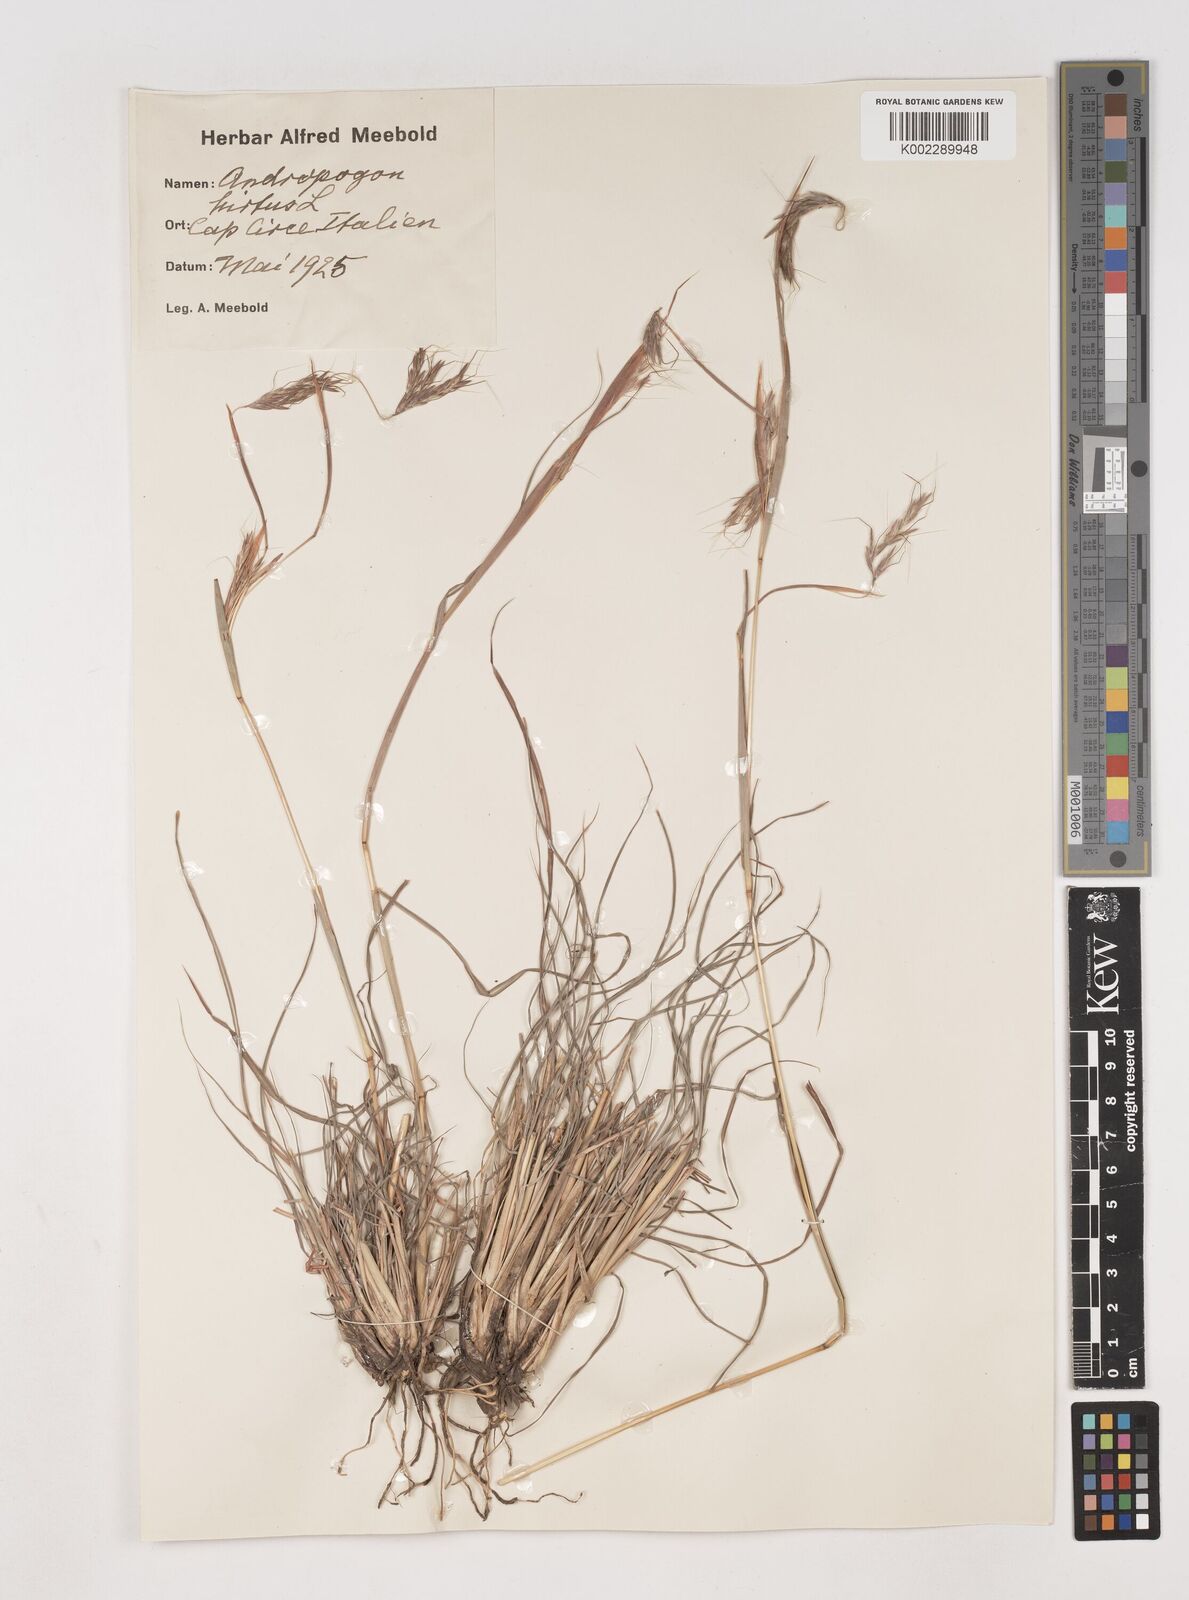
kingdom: Plantae
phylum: Tracheophyta
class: Liliopsida
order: Poales
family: Poaceae
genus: Hyparrhenia
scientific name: Hyparrhenia hirta
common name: Thatching grass
